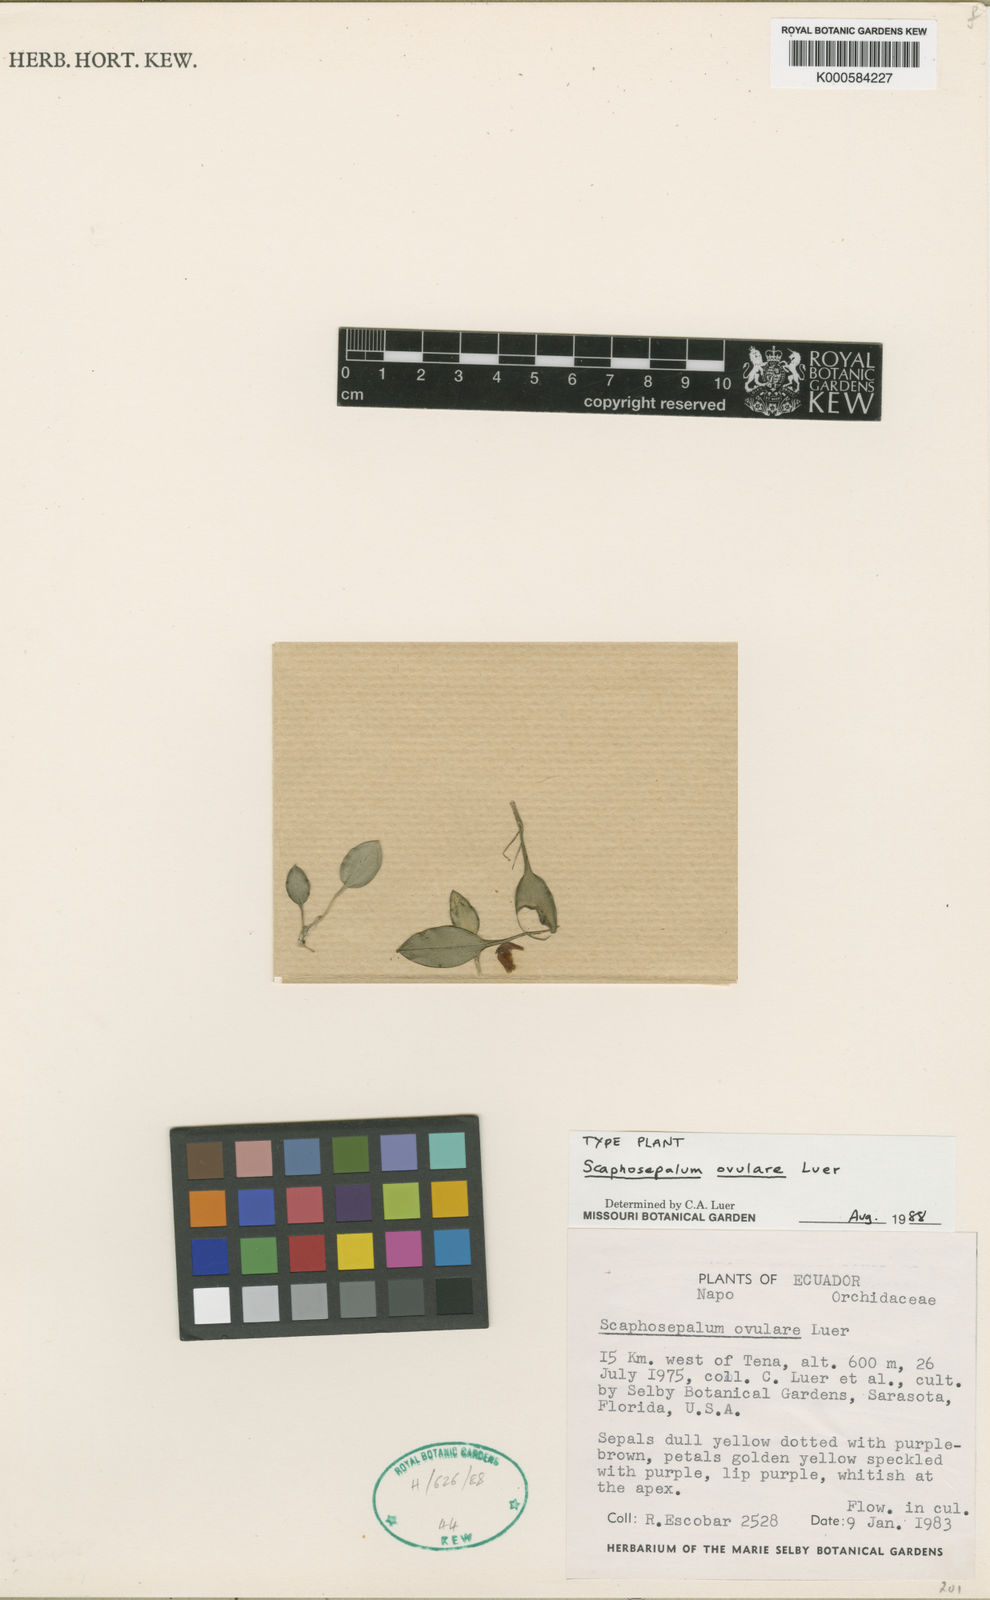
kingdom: Plantae
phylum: Tracheophyta
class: Liliopsida
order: Asparagales
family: Orchidaceae
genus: Scaphosepalum
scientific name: Scaphosepalum ovulare
